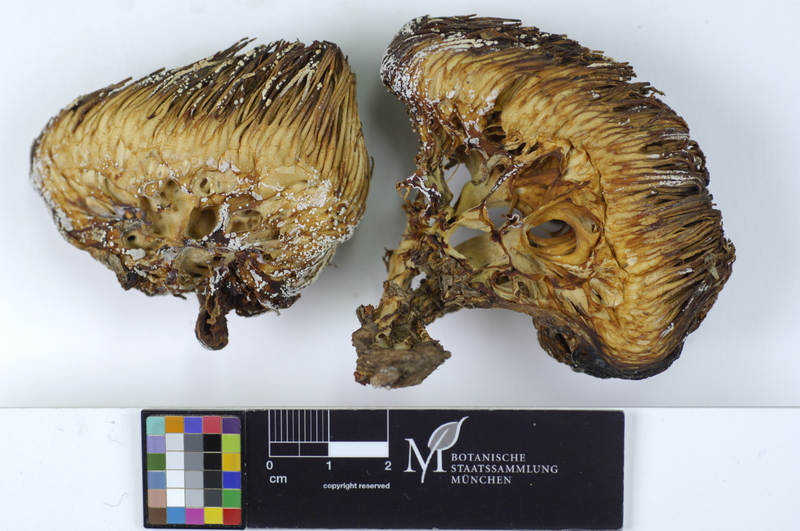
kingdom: Fungi
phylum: Basidiomycota
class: Agaricomycetes
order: Russulales
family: Hericiaceae
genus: Hericium
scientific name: Hericium erinaceus
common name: Bearded tooth
